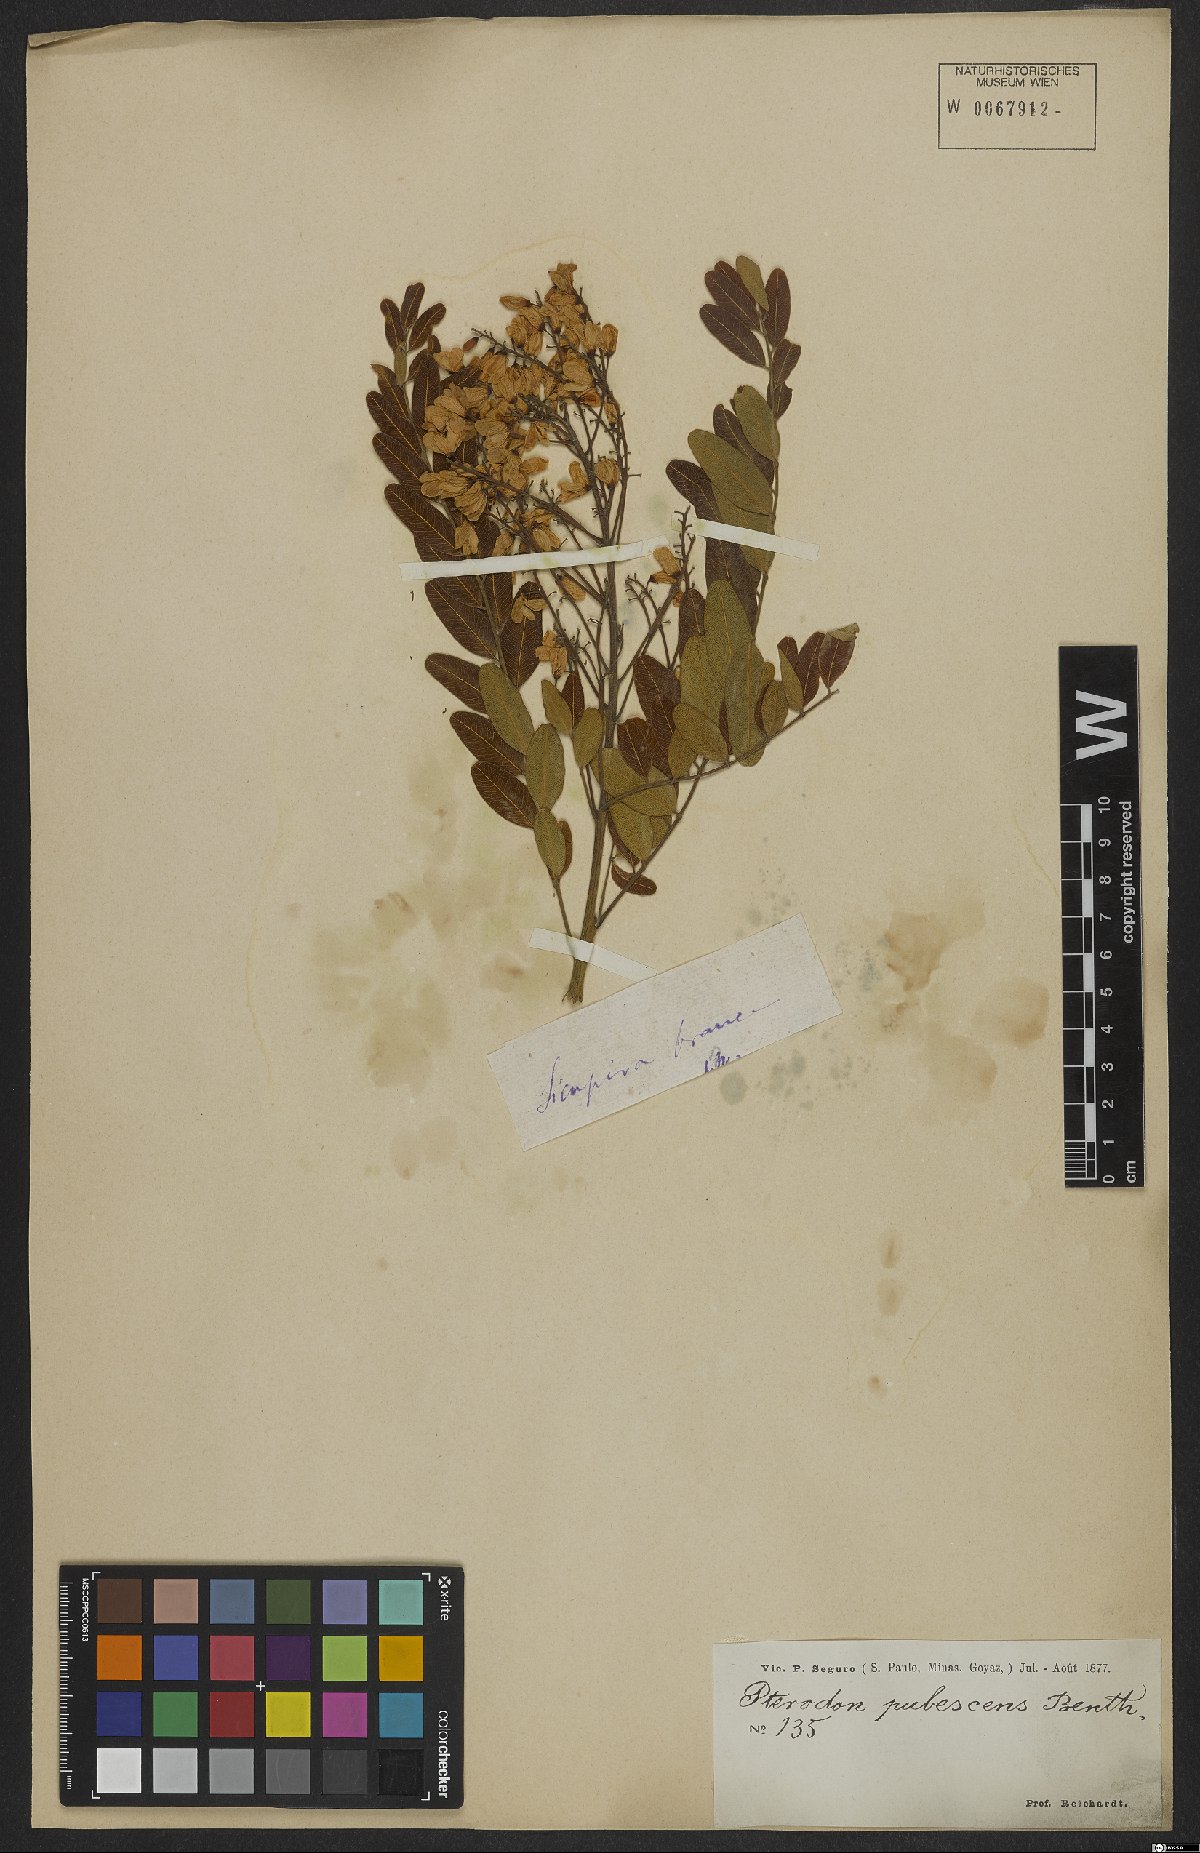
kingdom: Plantae
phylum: Tracheophyta
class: Magnoliopsida
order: Fabales
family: Fabaceae
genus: Pterodon
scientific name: Pterodon emarginatus
